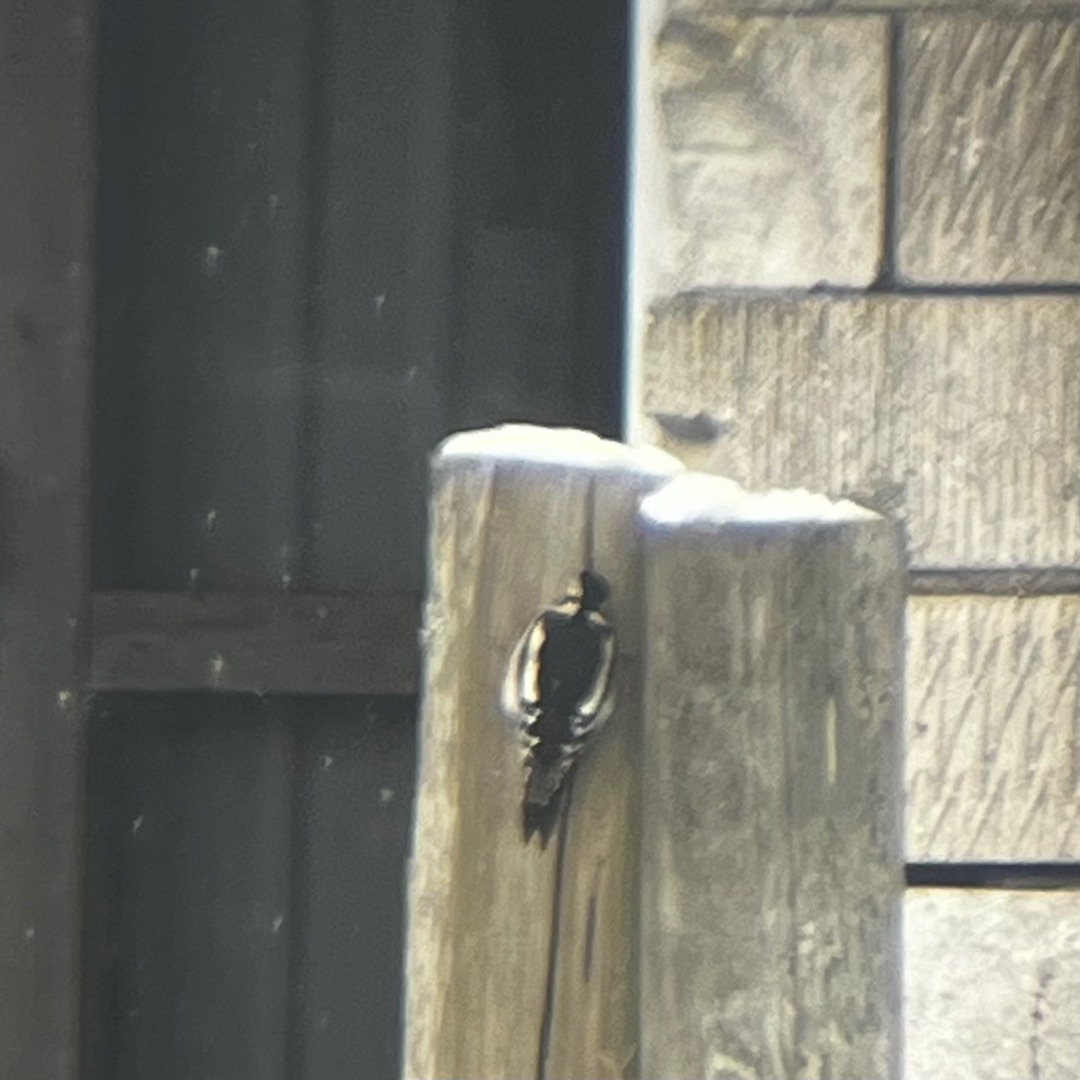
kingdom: Animalia
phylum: Chordata
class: Aves
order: Piciformes
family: Picidae
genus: Dendrocopos
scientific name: Dendrocopos major
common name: Stor flagspætte
